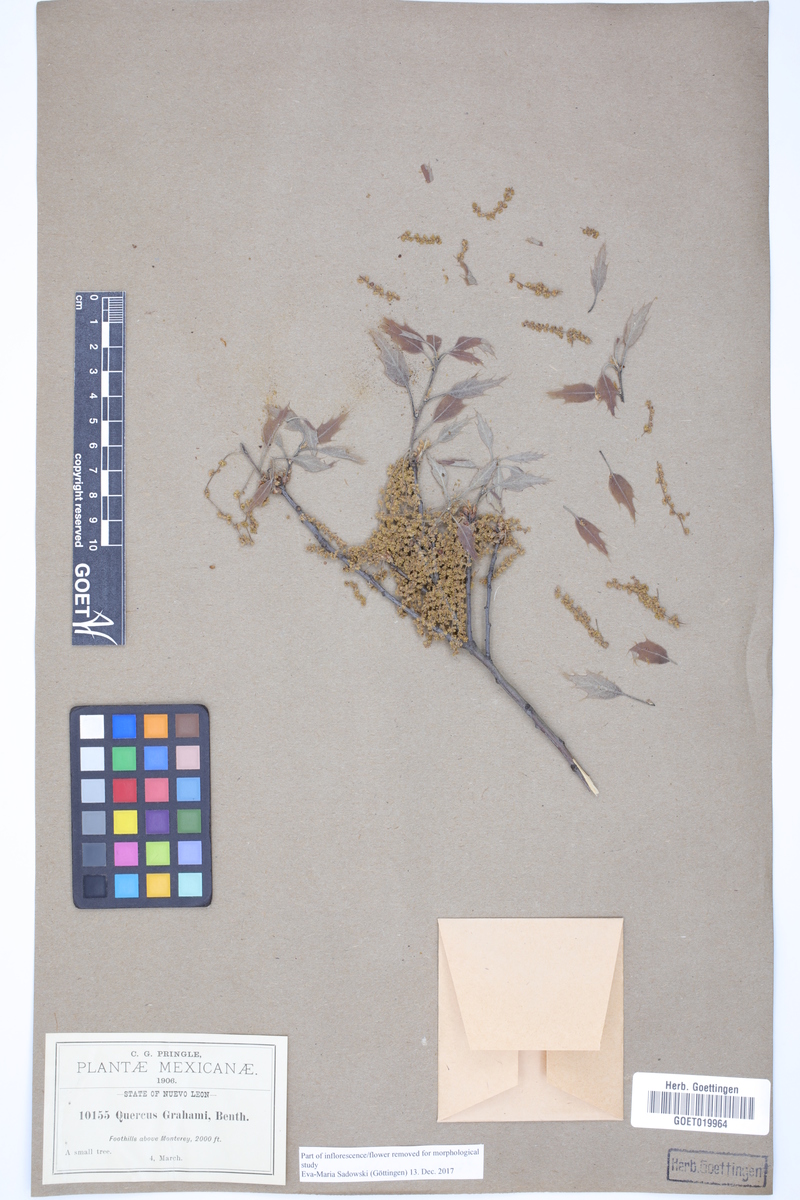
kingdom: Plantae
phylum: Tracheophyta
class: Magnoliopsida
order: Fagales
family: Fagaceae
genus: Quercus
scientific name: Quercus grahamii
